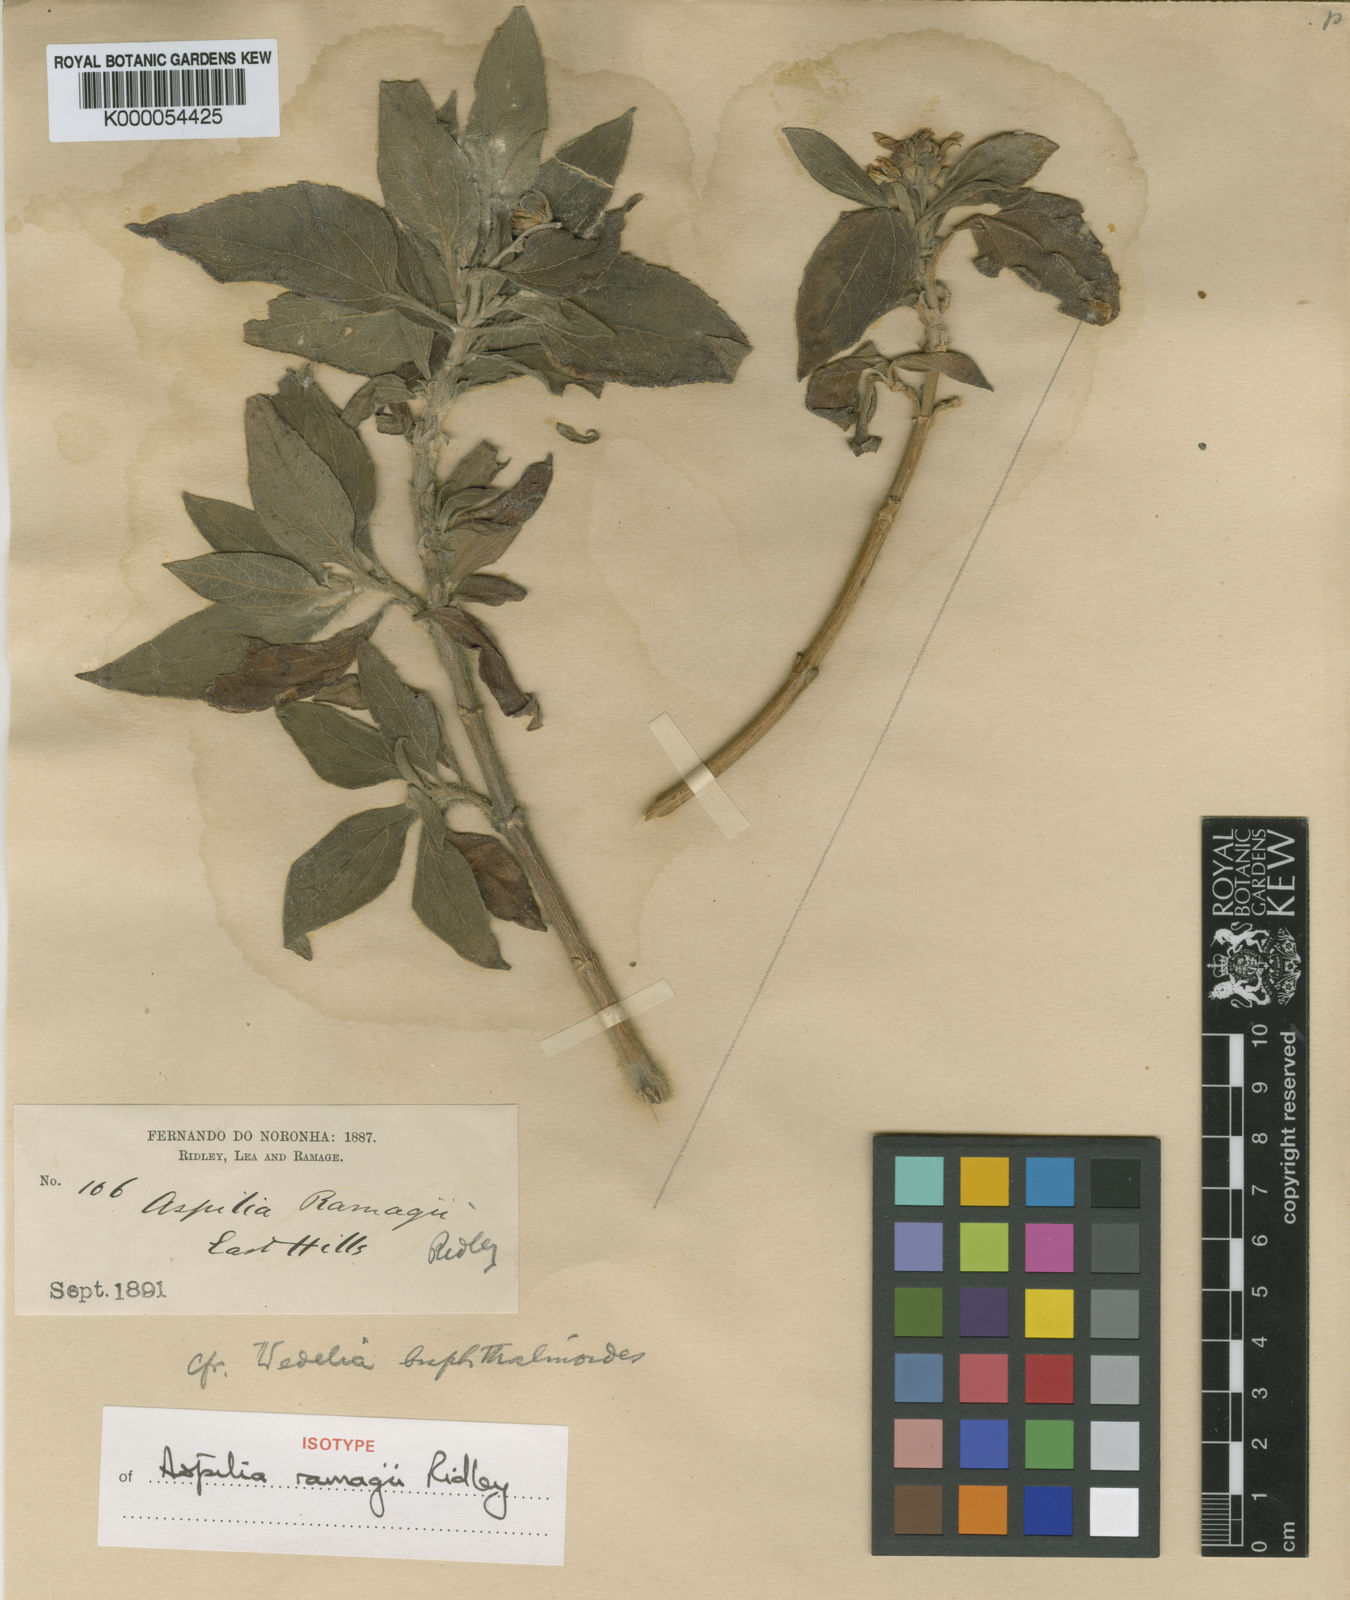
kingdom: Plantae
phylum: Tracheophyta
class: Magnoliopsida
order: Asterales
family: Asteraceae
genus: Wedelia
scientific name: Wedelia ramagii
